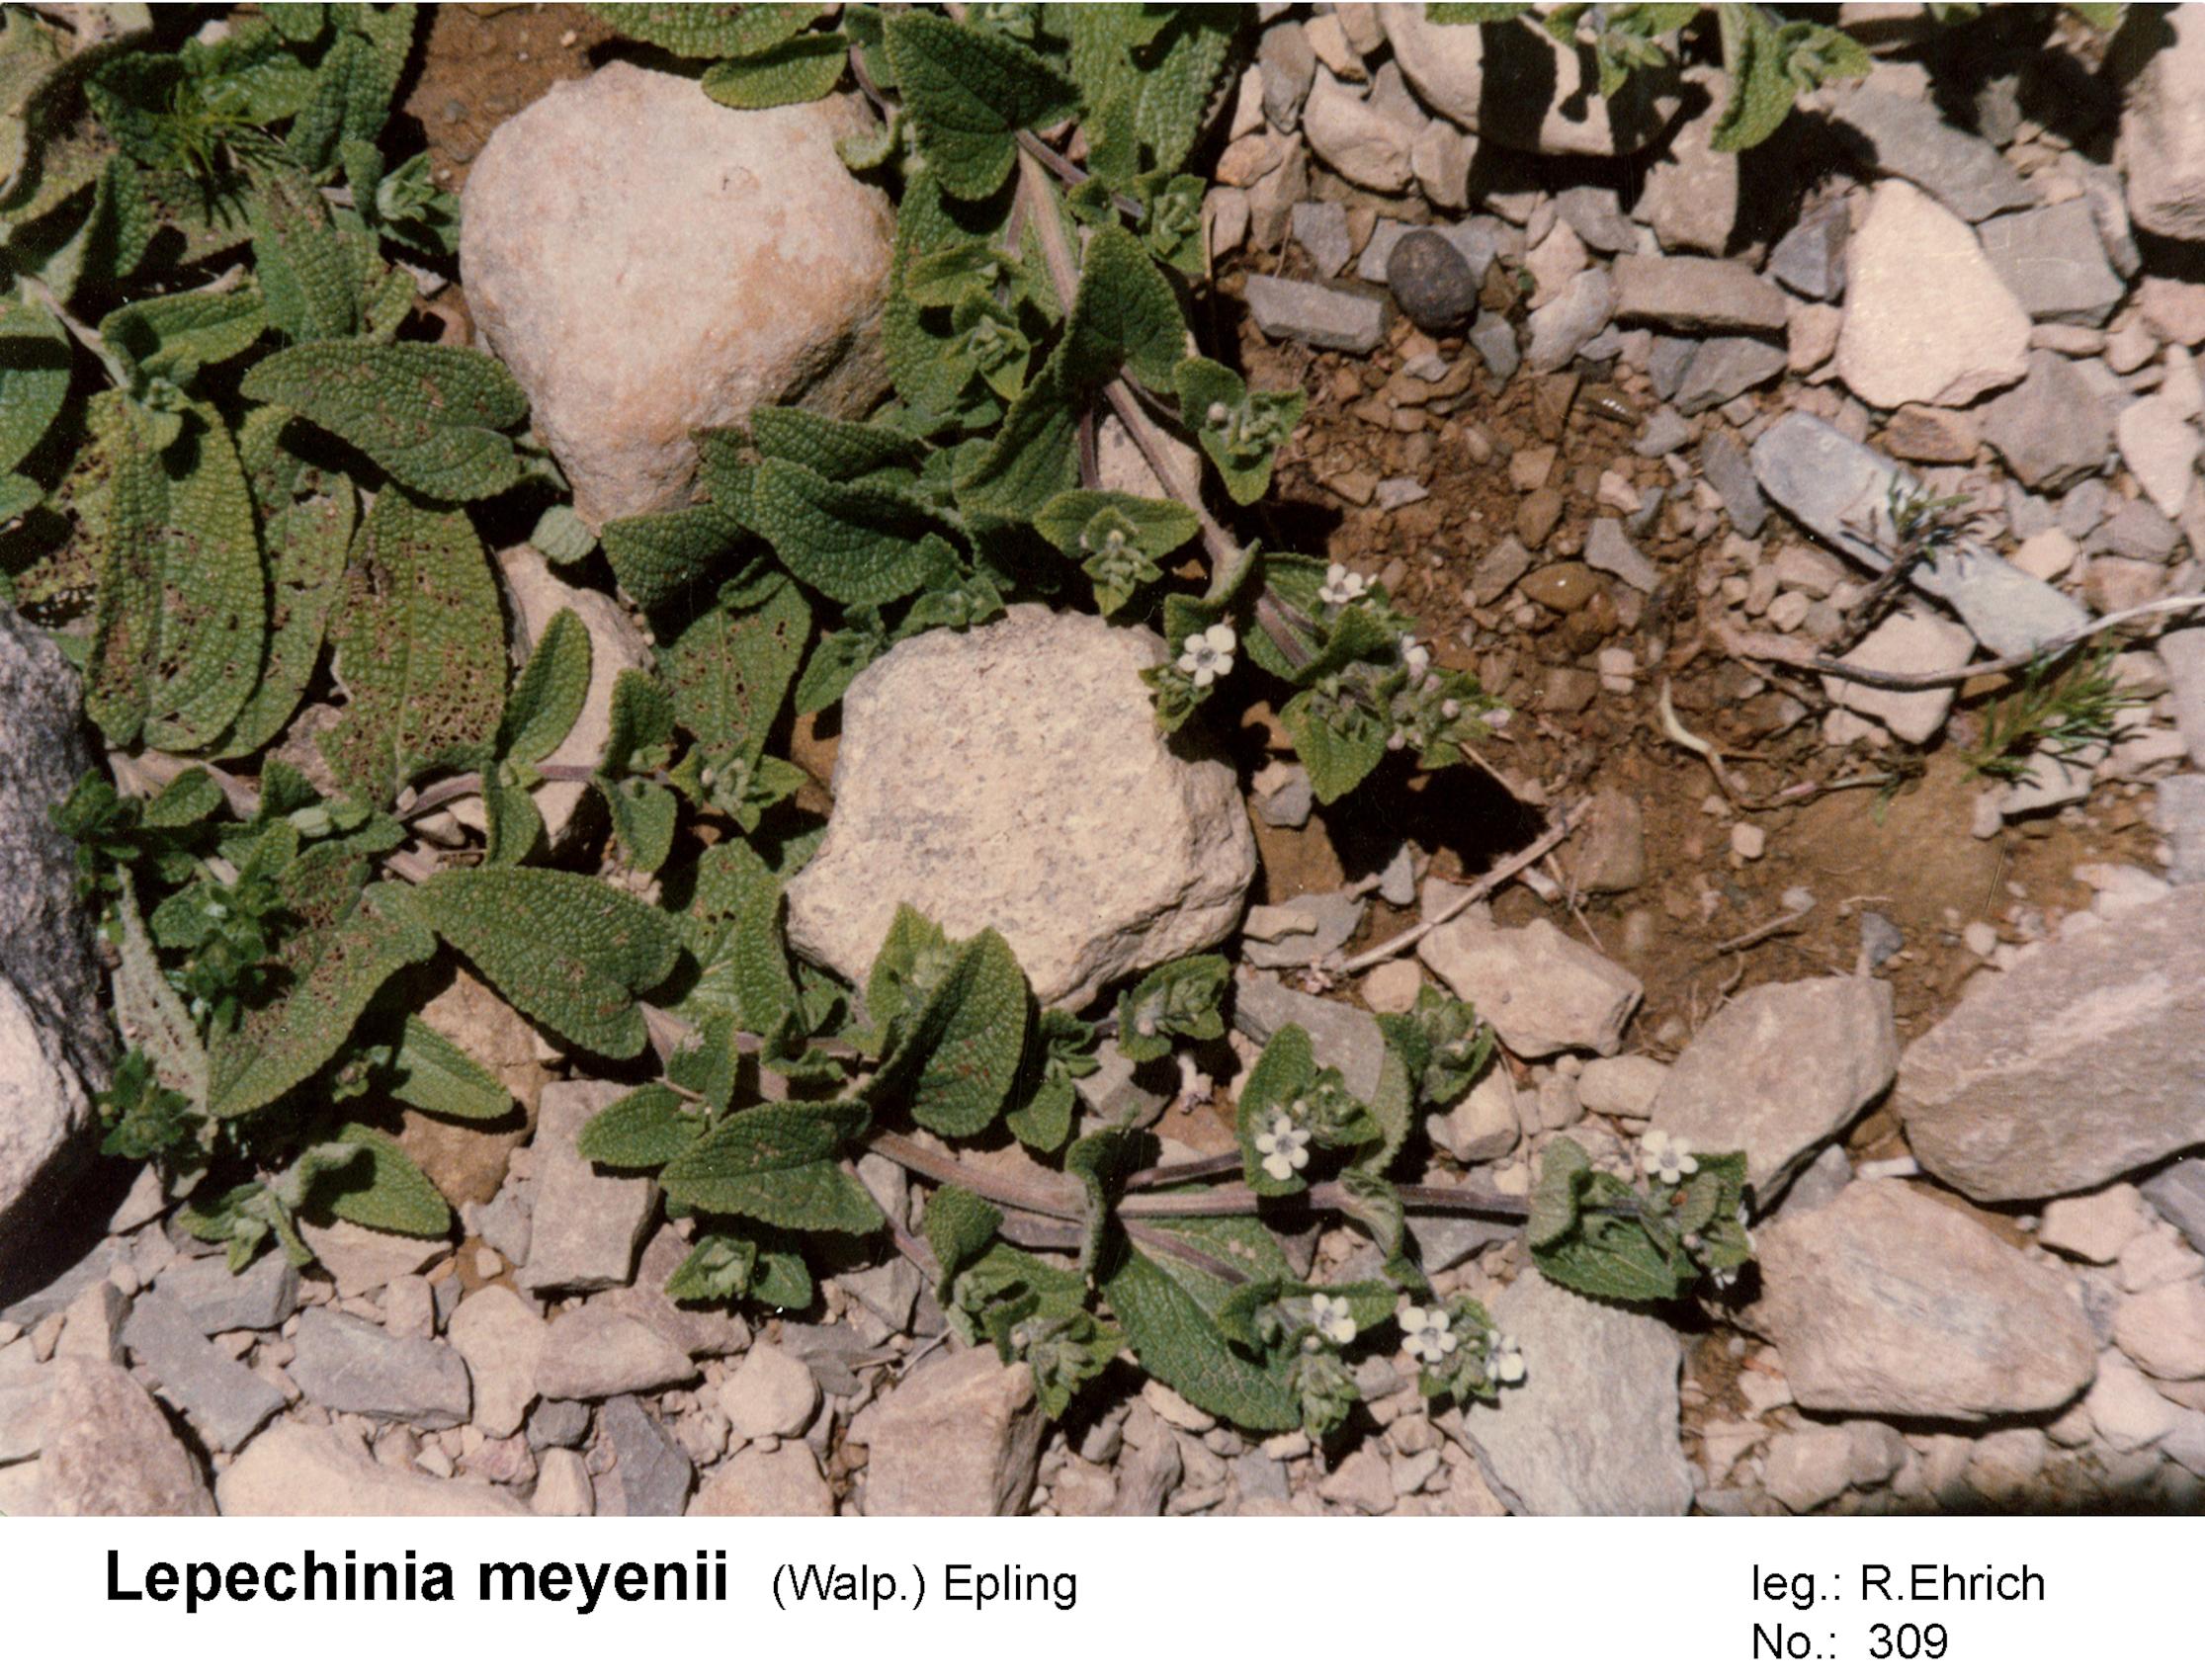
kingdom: Plantae
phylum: Tracheophyta
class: Magnoliopsida
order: Lamiales
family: Lamiaceae
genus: Lepechinia
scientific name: Lepechinia meyenii
